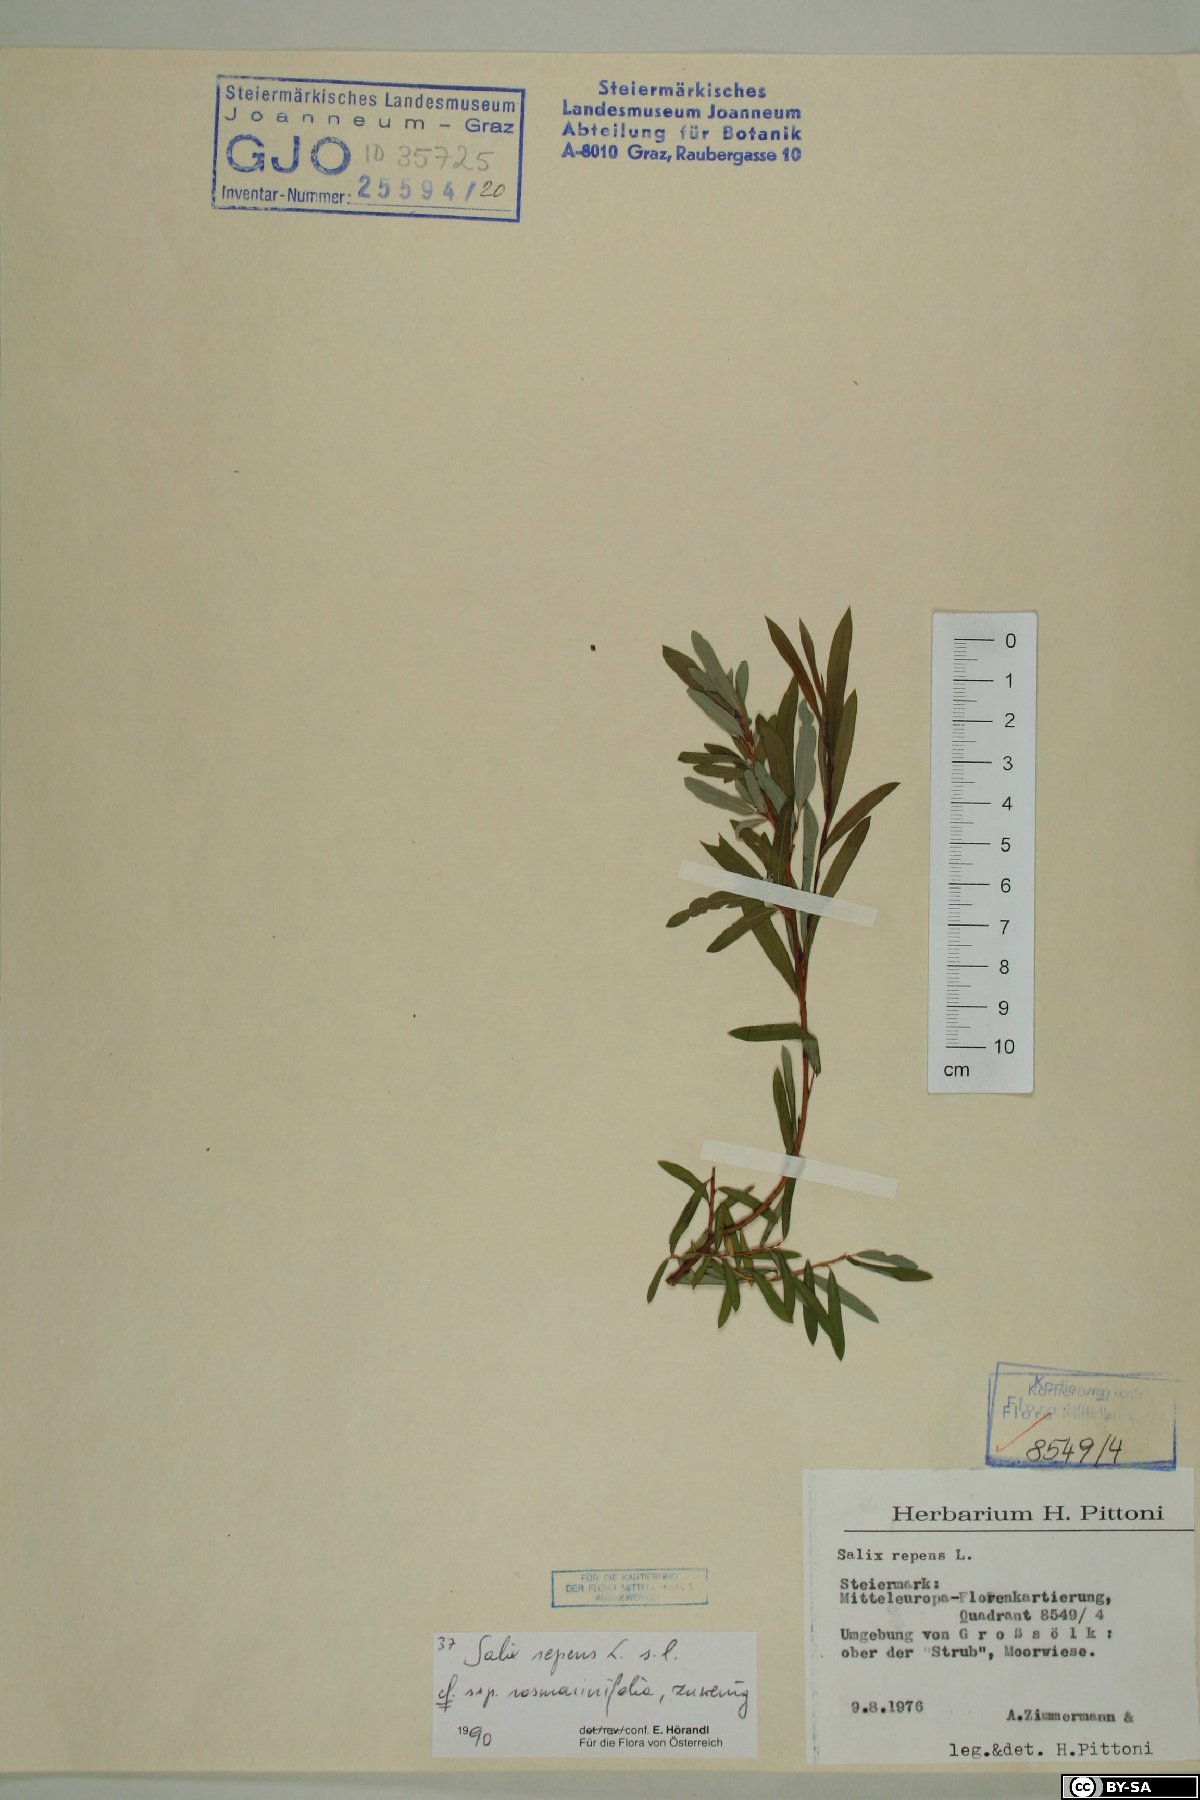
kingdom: Plantae
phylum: Tracheophyta
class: Magnoliopsida
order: Malpighiales
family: Salicaceae
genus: Salix
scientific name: Salix repens
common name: Creeping willow
